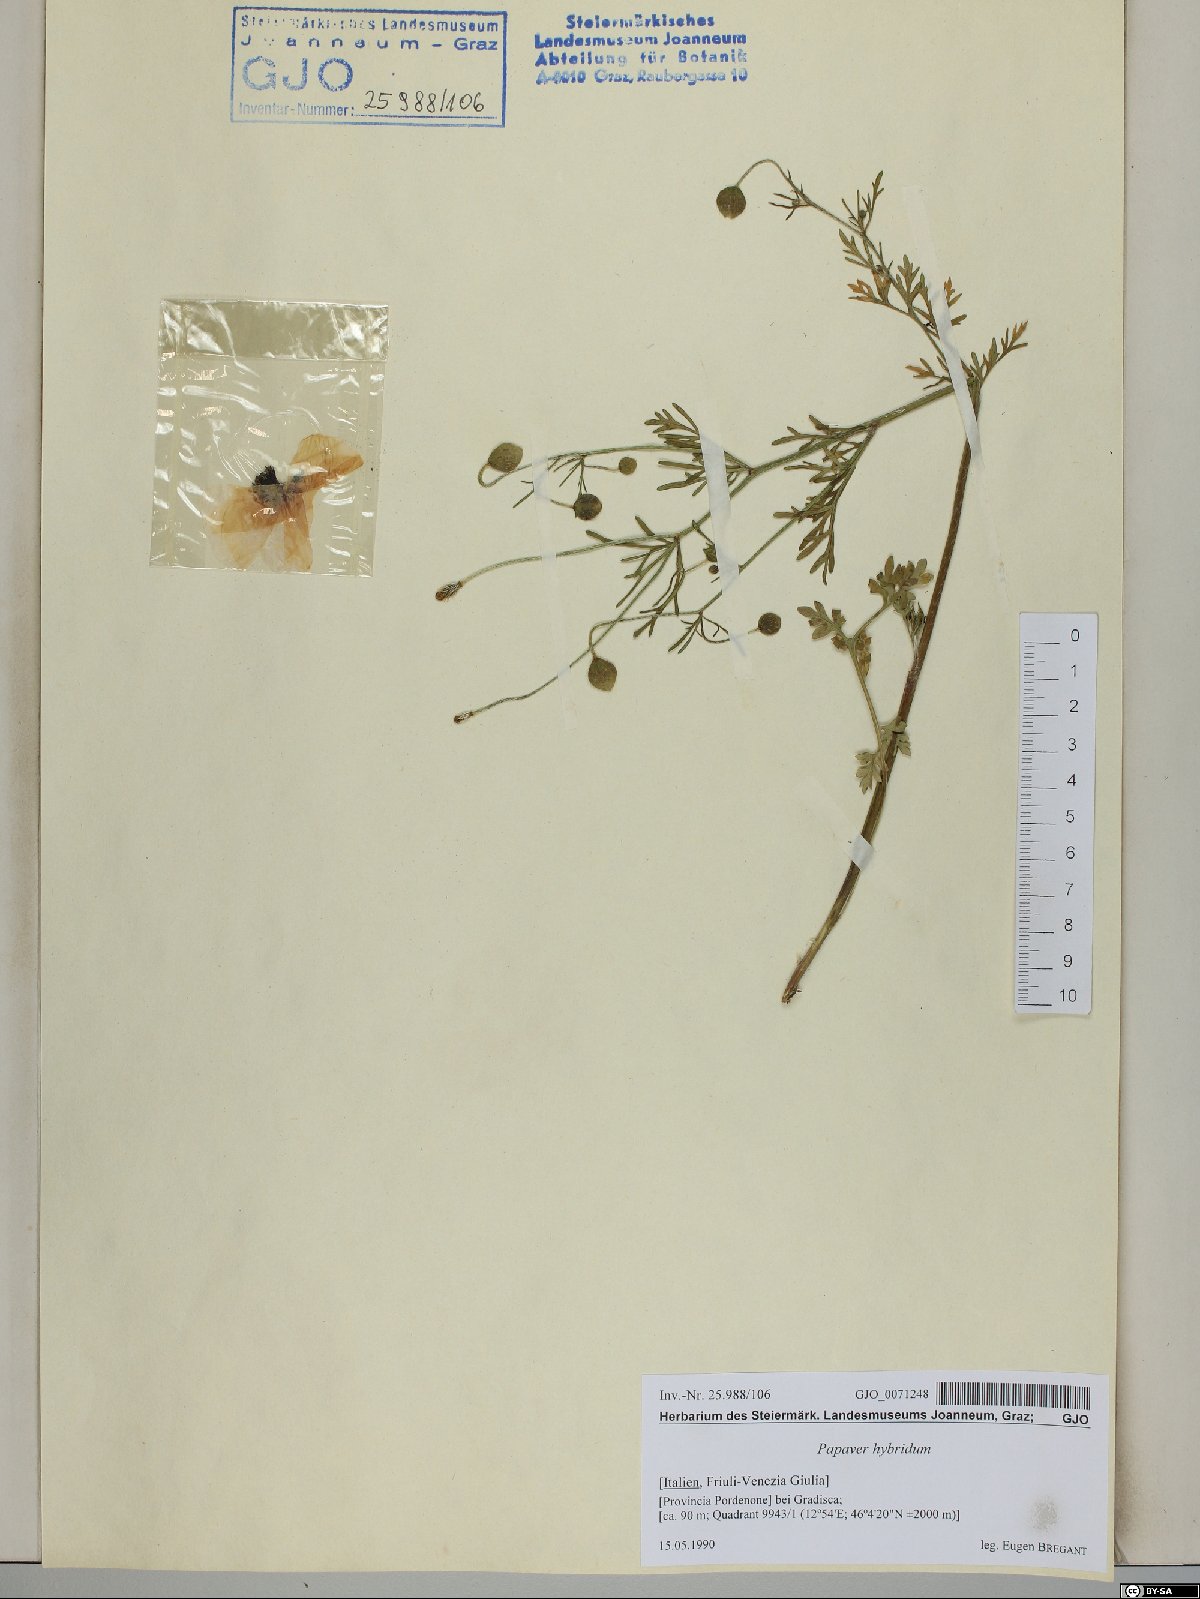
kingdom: Plantae
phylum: Tracheophyta
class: Magnoliopsida
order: Ranunculales
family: Papaveraceae
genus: Roemeria
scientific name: Roemeria hispida
